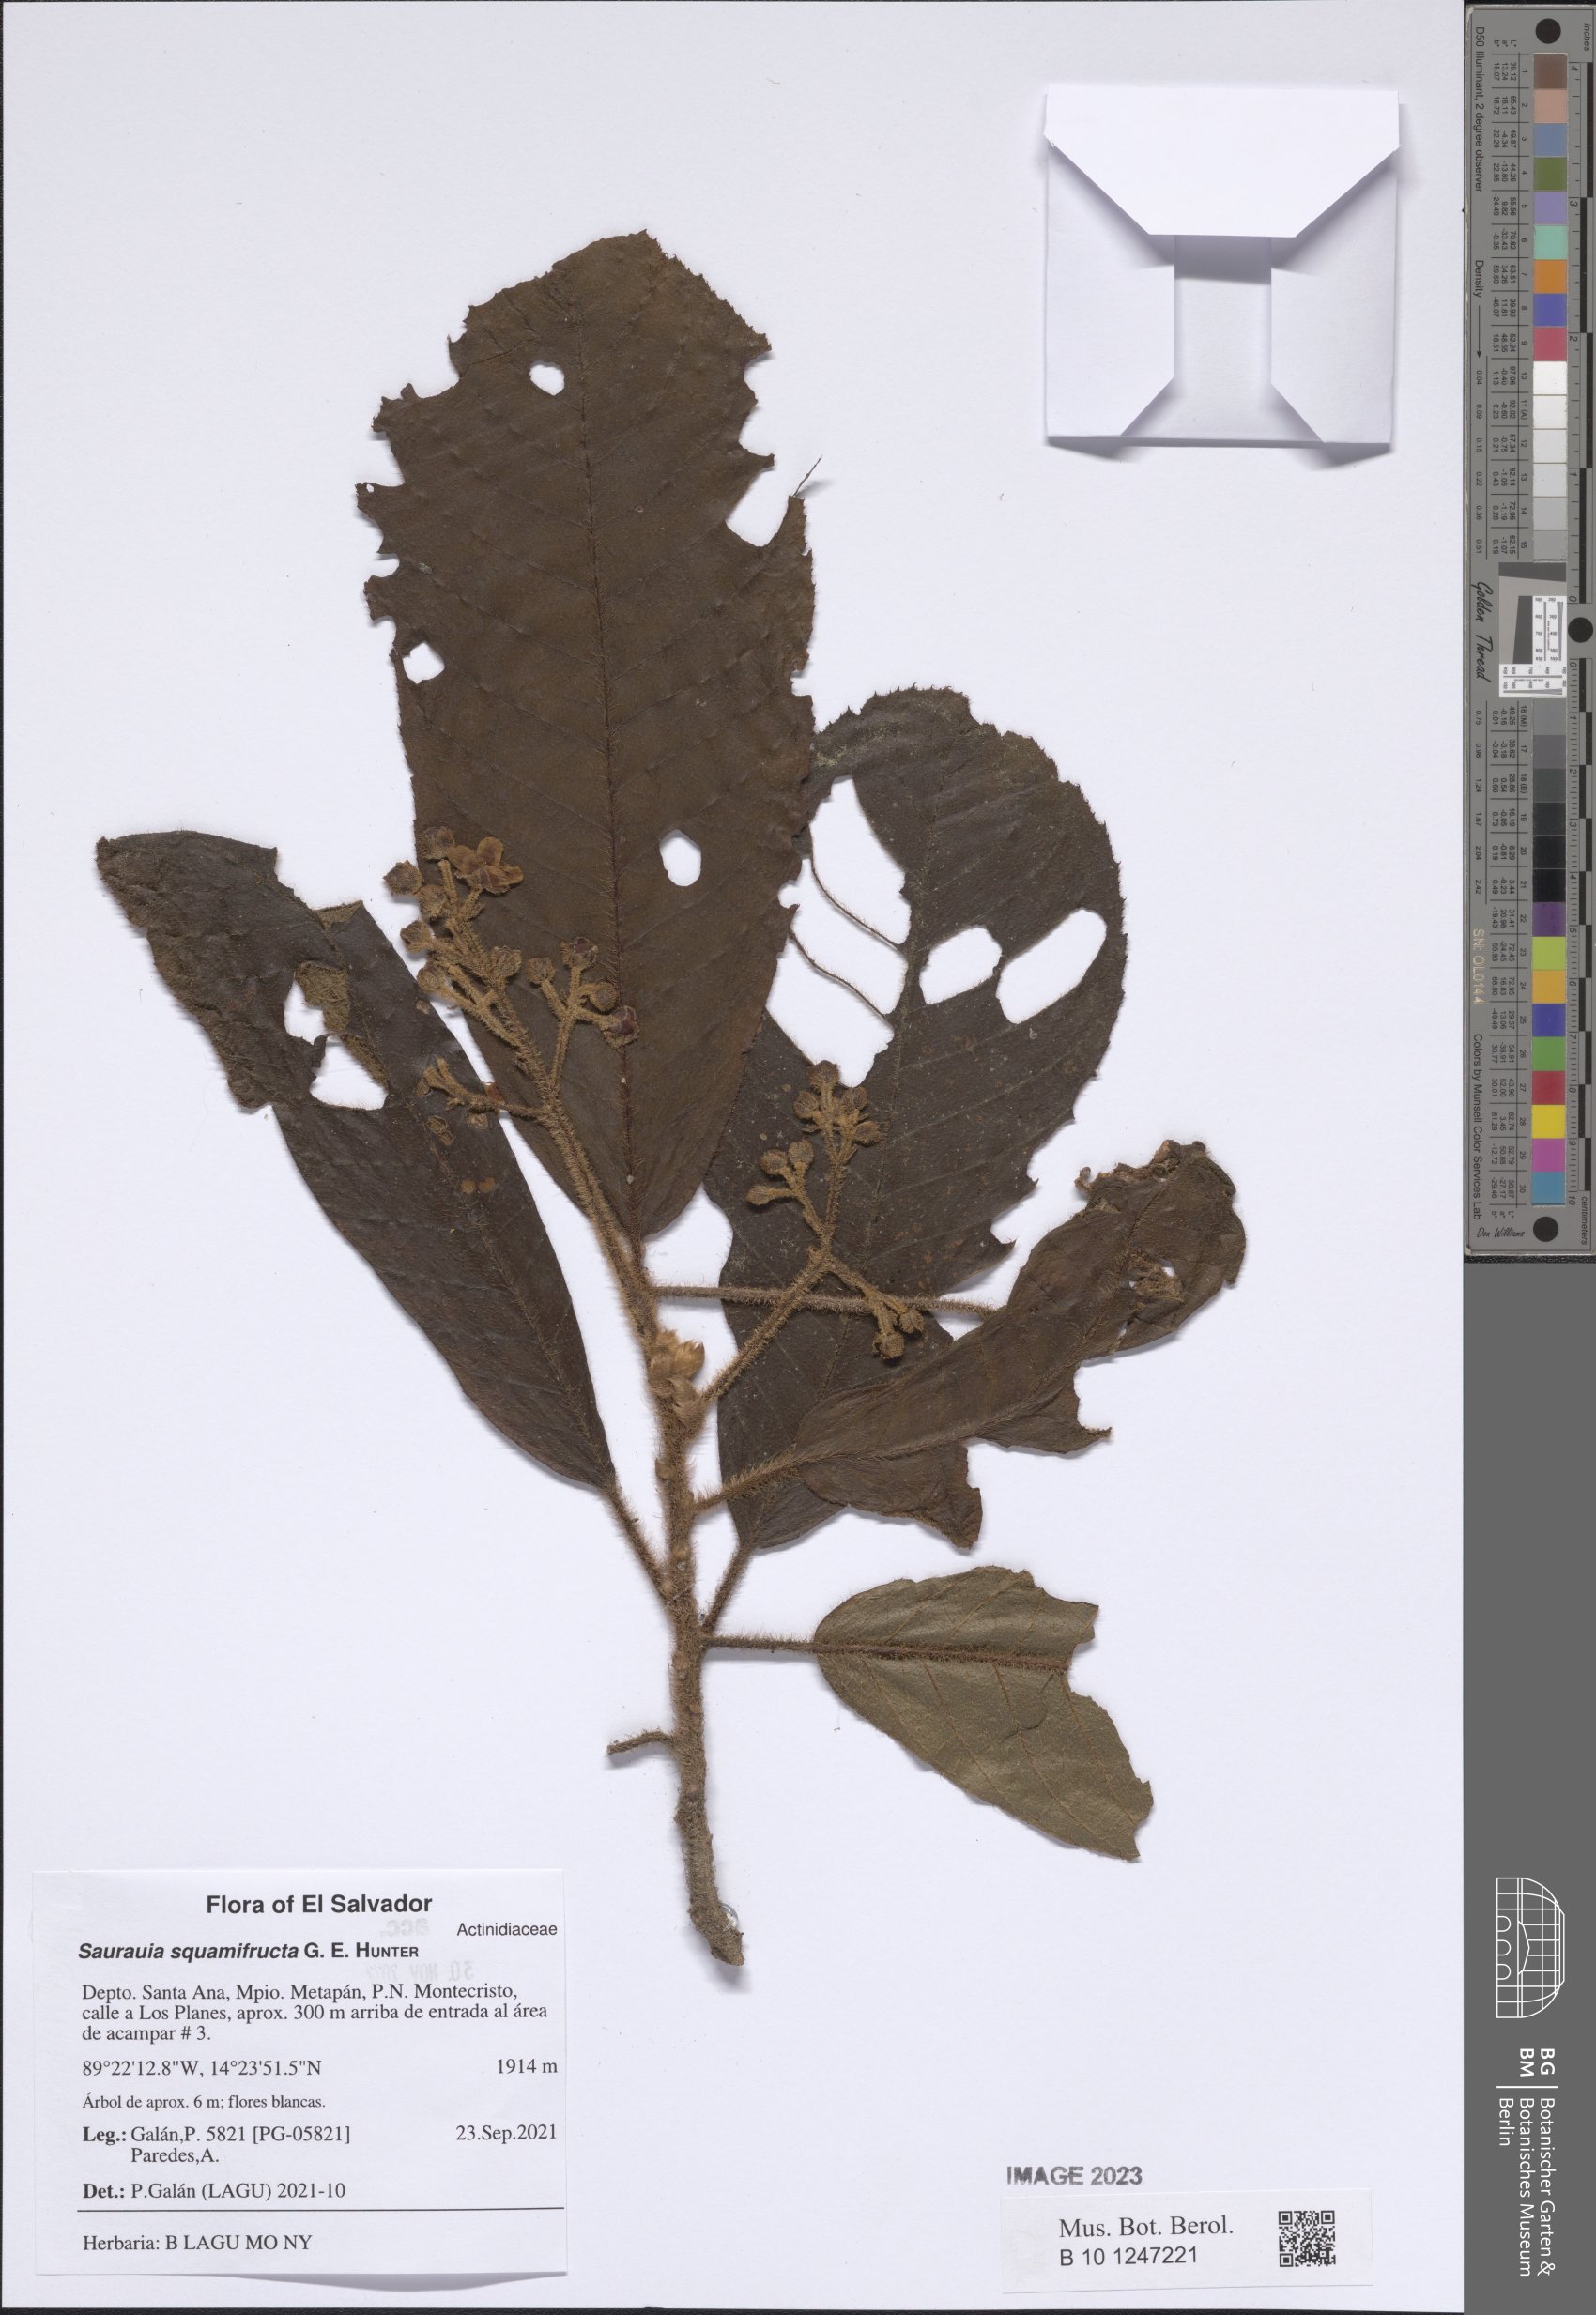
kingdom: Plantae
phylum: Tracheophyta
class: Magnoliopsida
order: Ericales
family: Actinidiaceae
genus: Saurauia
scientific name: Saurauia squamifructa
